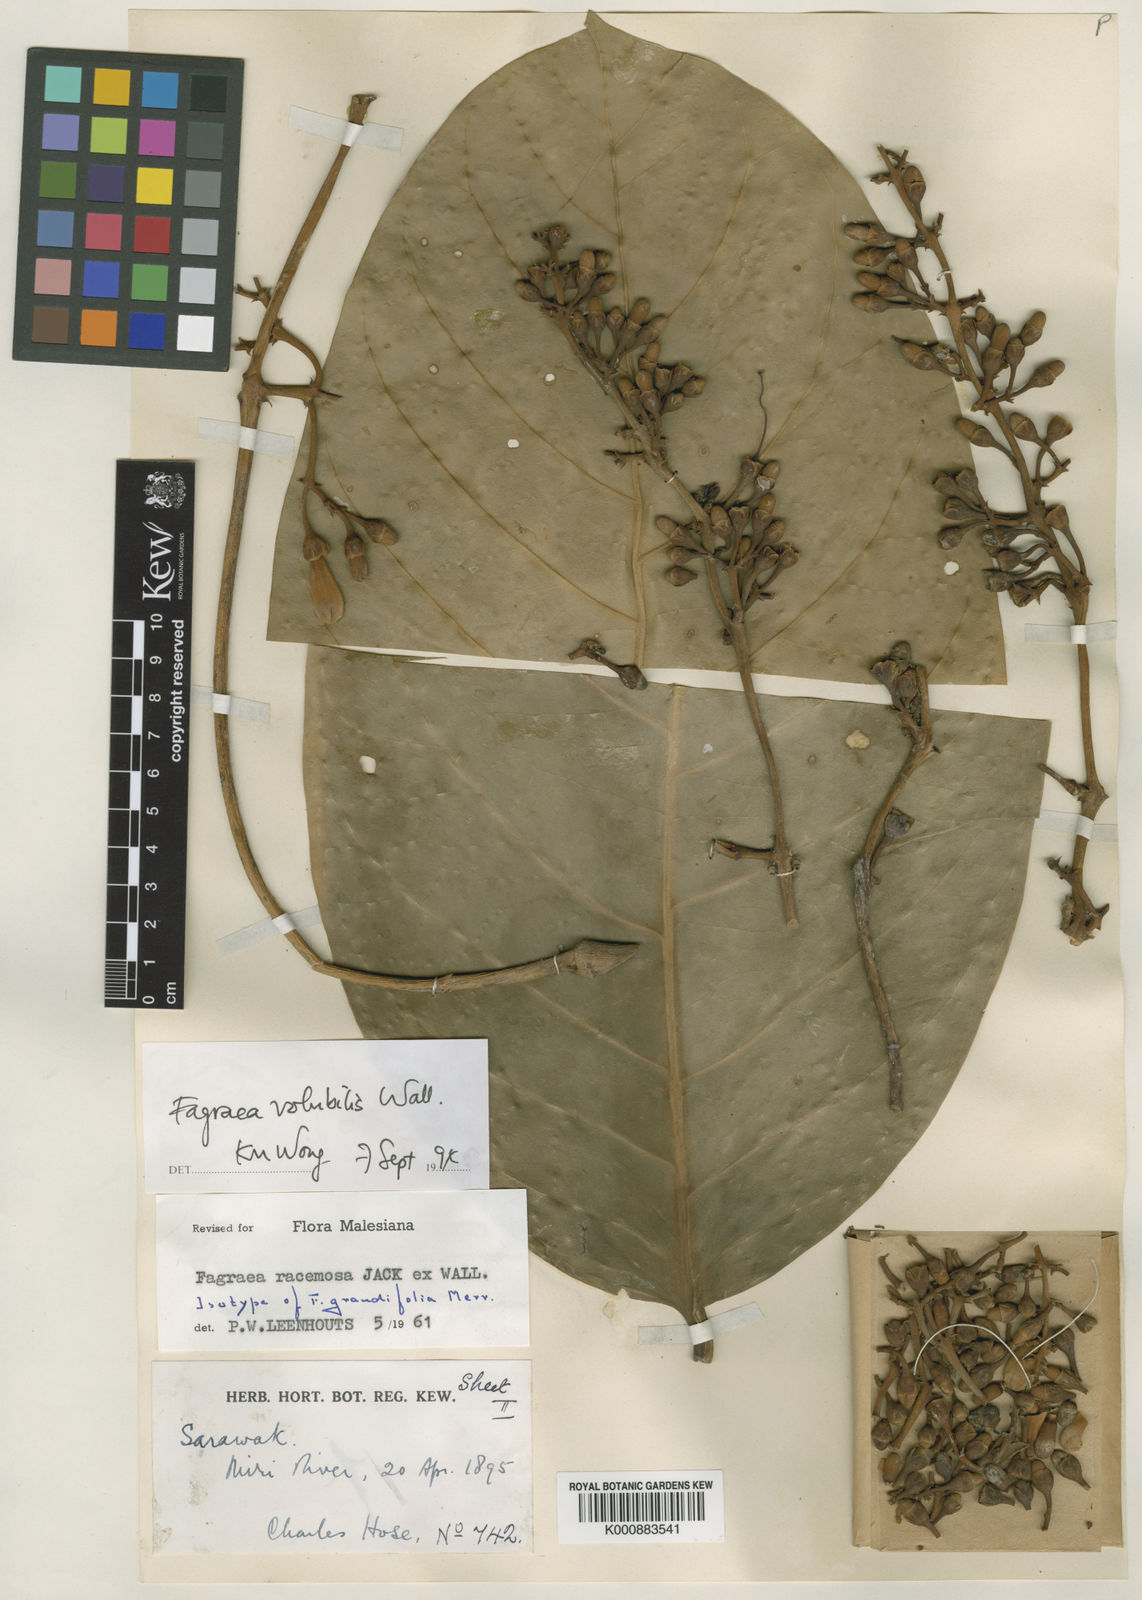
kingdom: Plantae
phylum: Tracheophyta
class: Magnoliopsida
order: Gentianales
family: Gentianaceae
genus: Fagraea
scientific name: Fagraea
